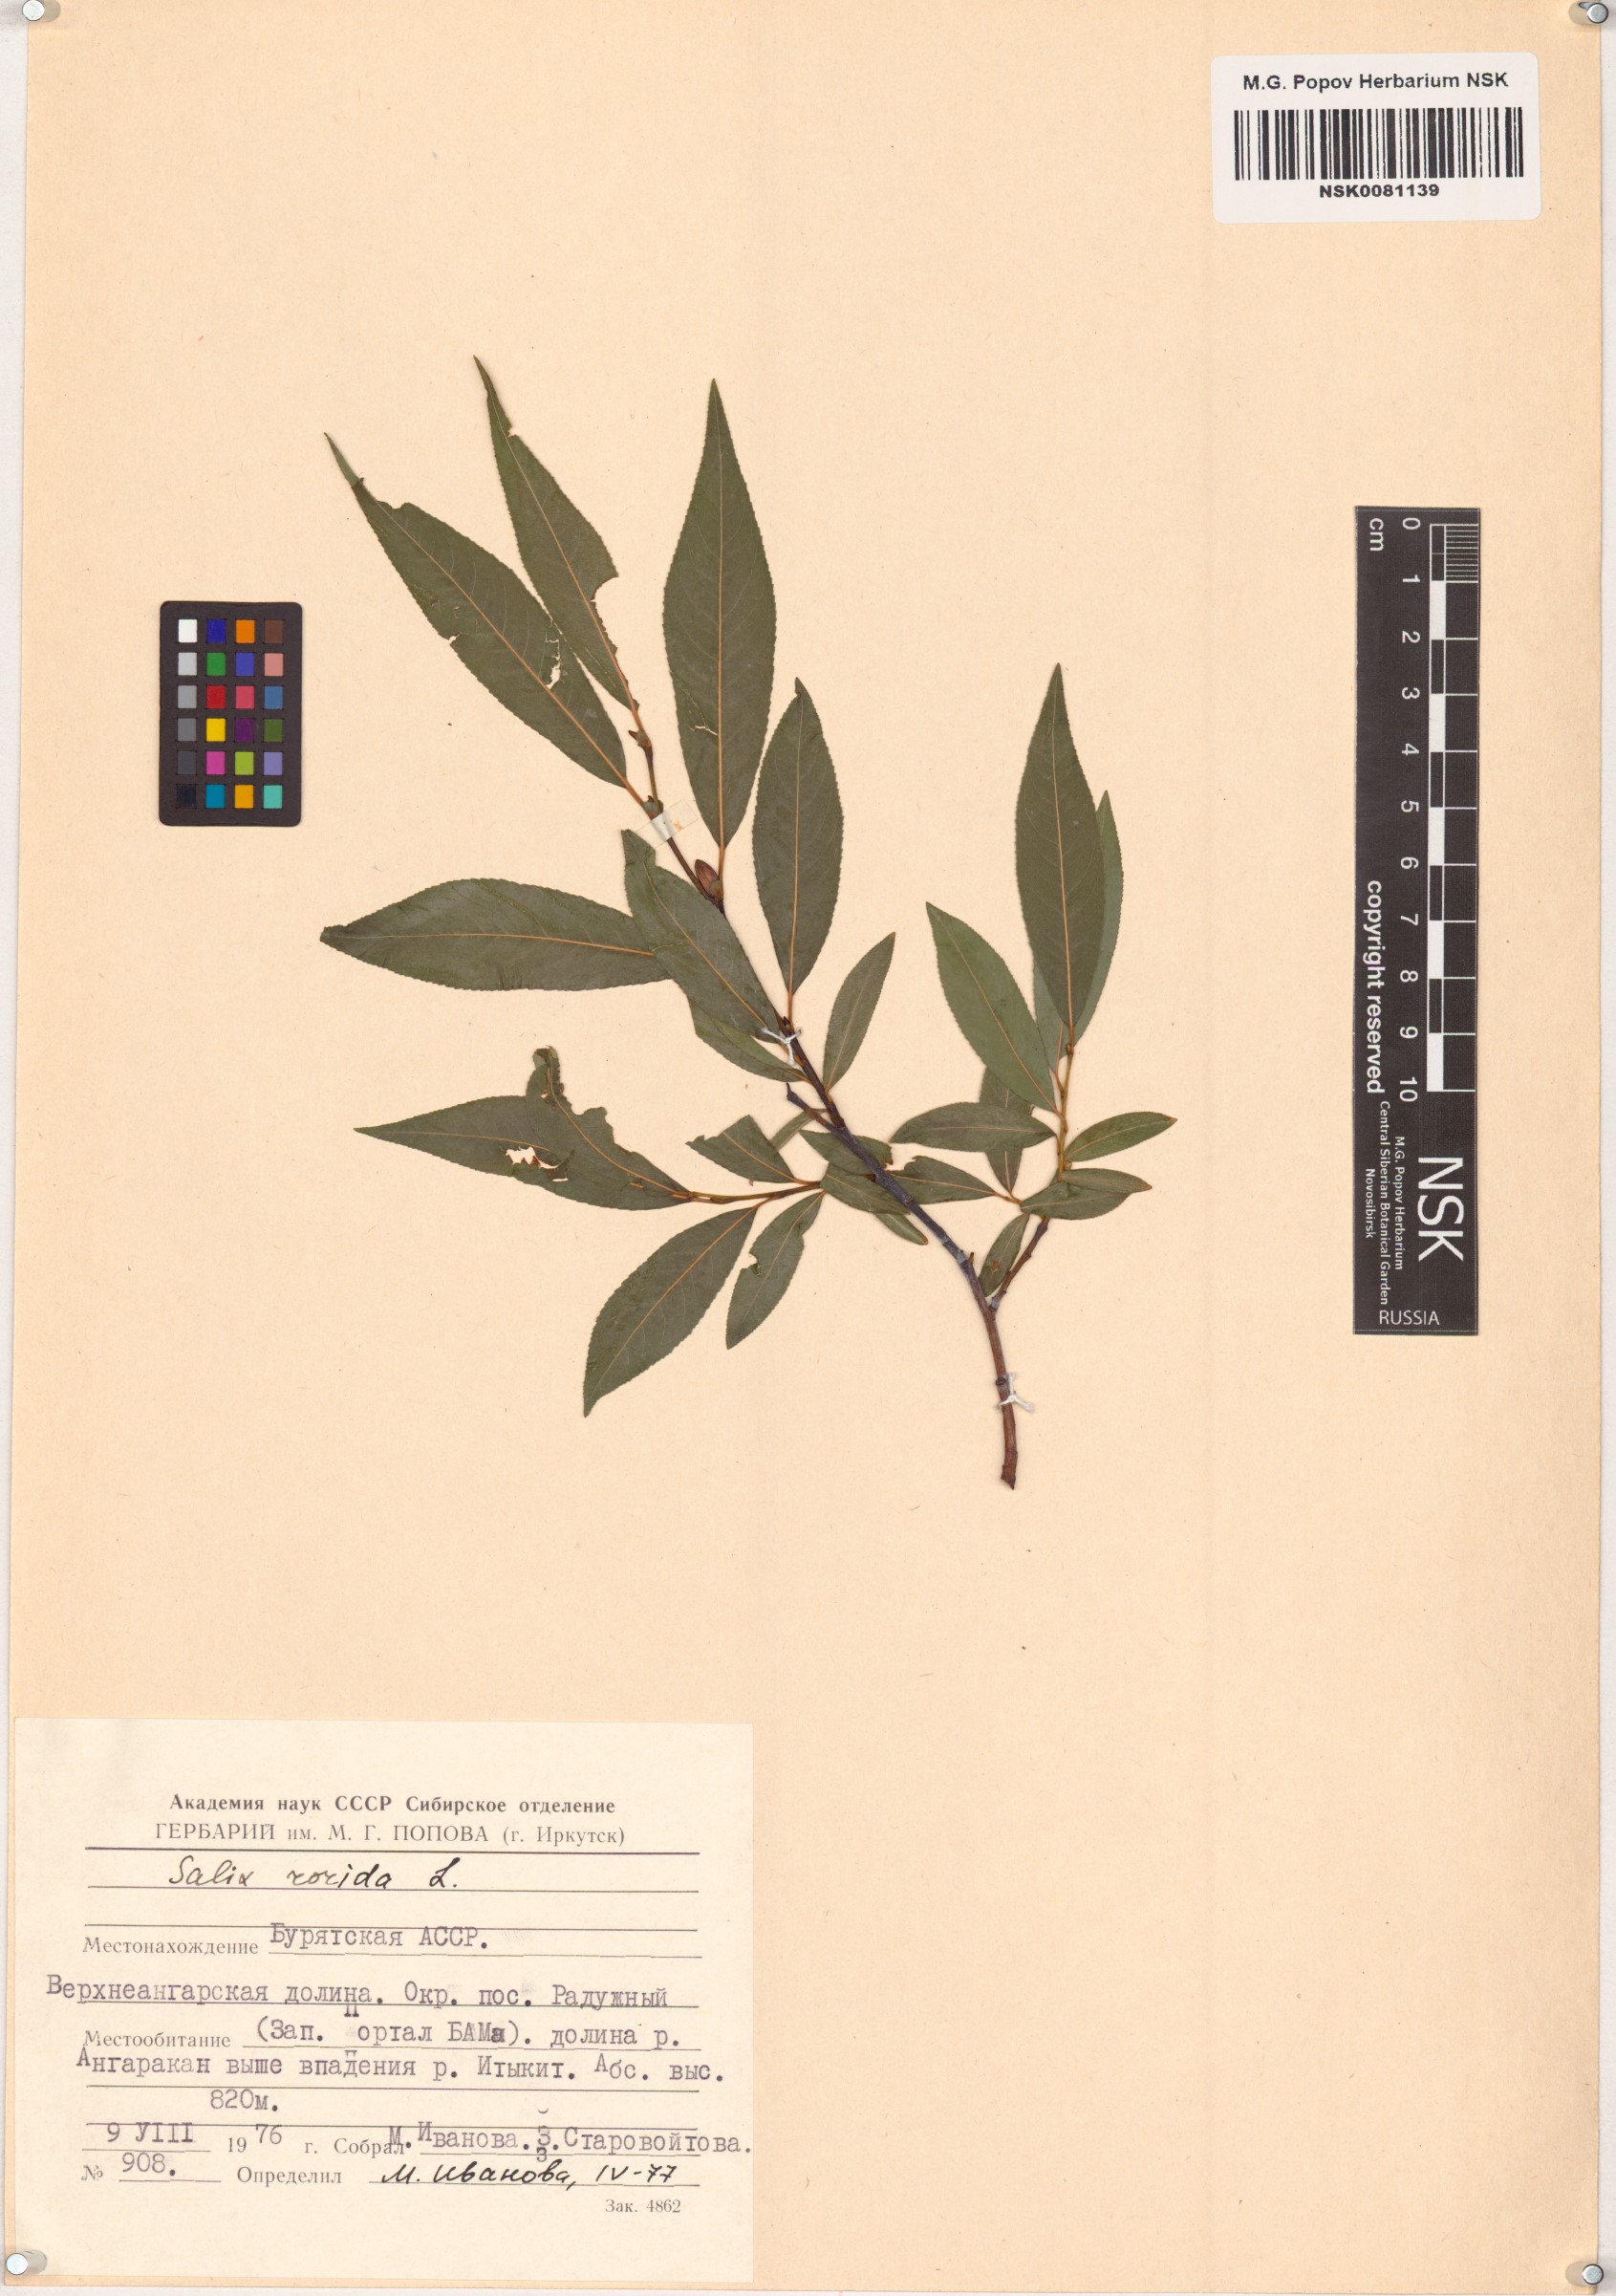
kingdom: Plantae
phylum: Tracheophyta
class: Magnoliopsida
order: Malpighiales
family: Salicaceae
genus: Salix
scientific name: Salix rorida
